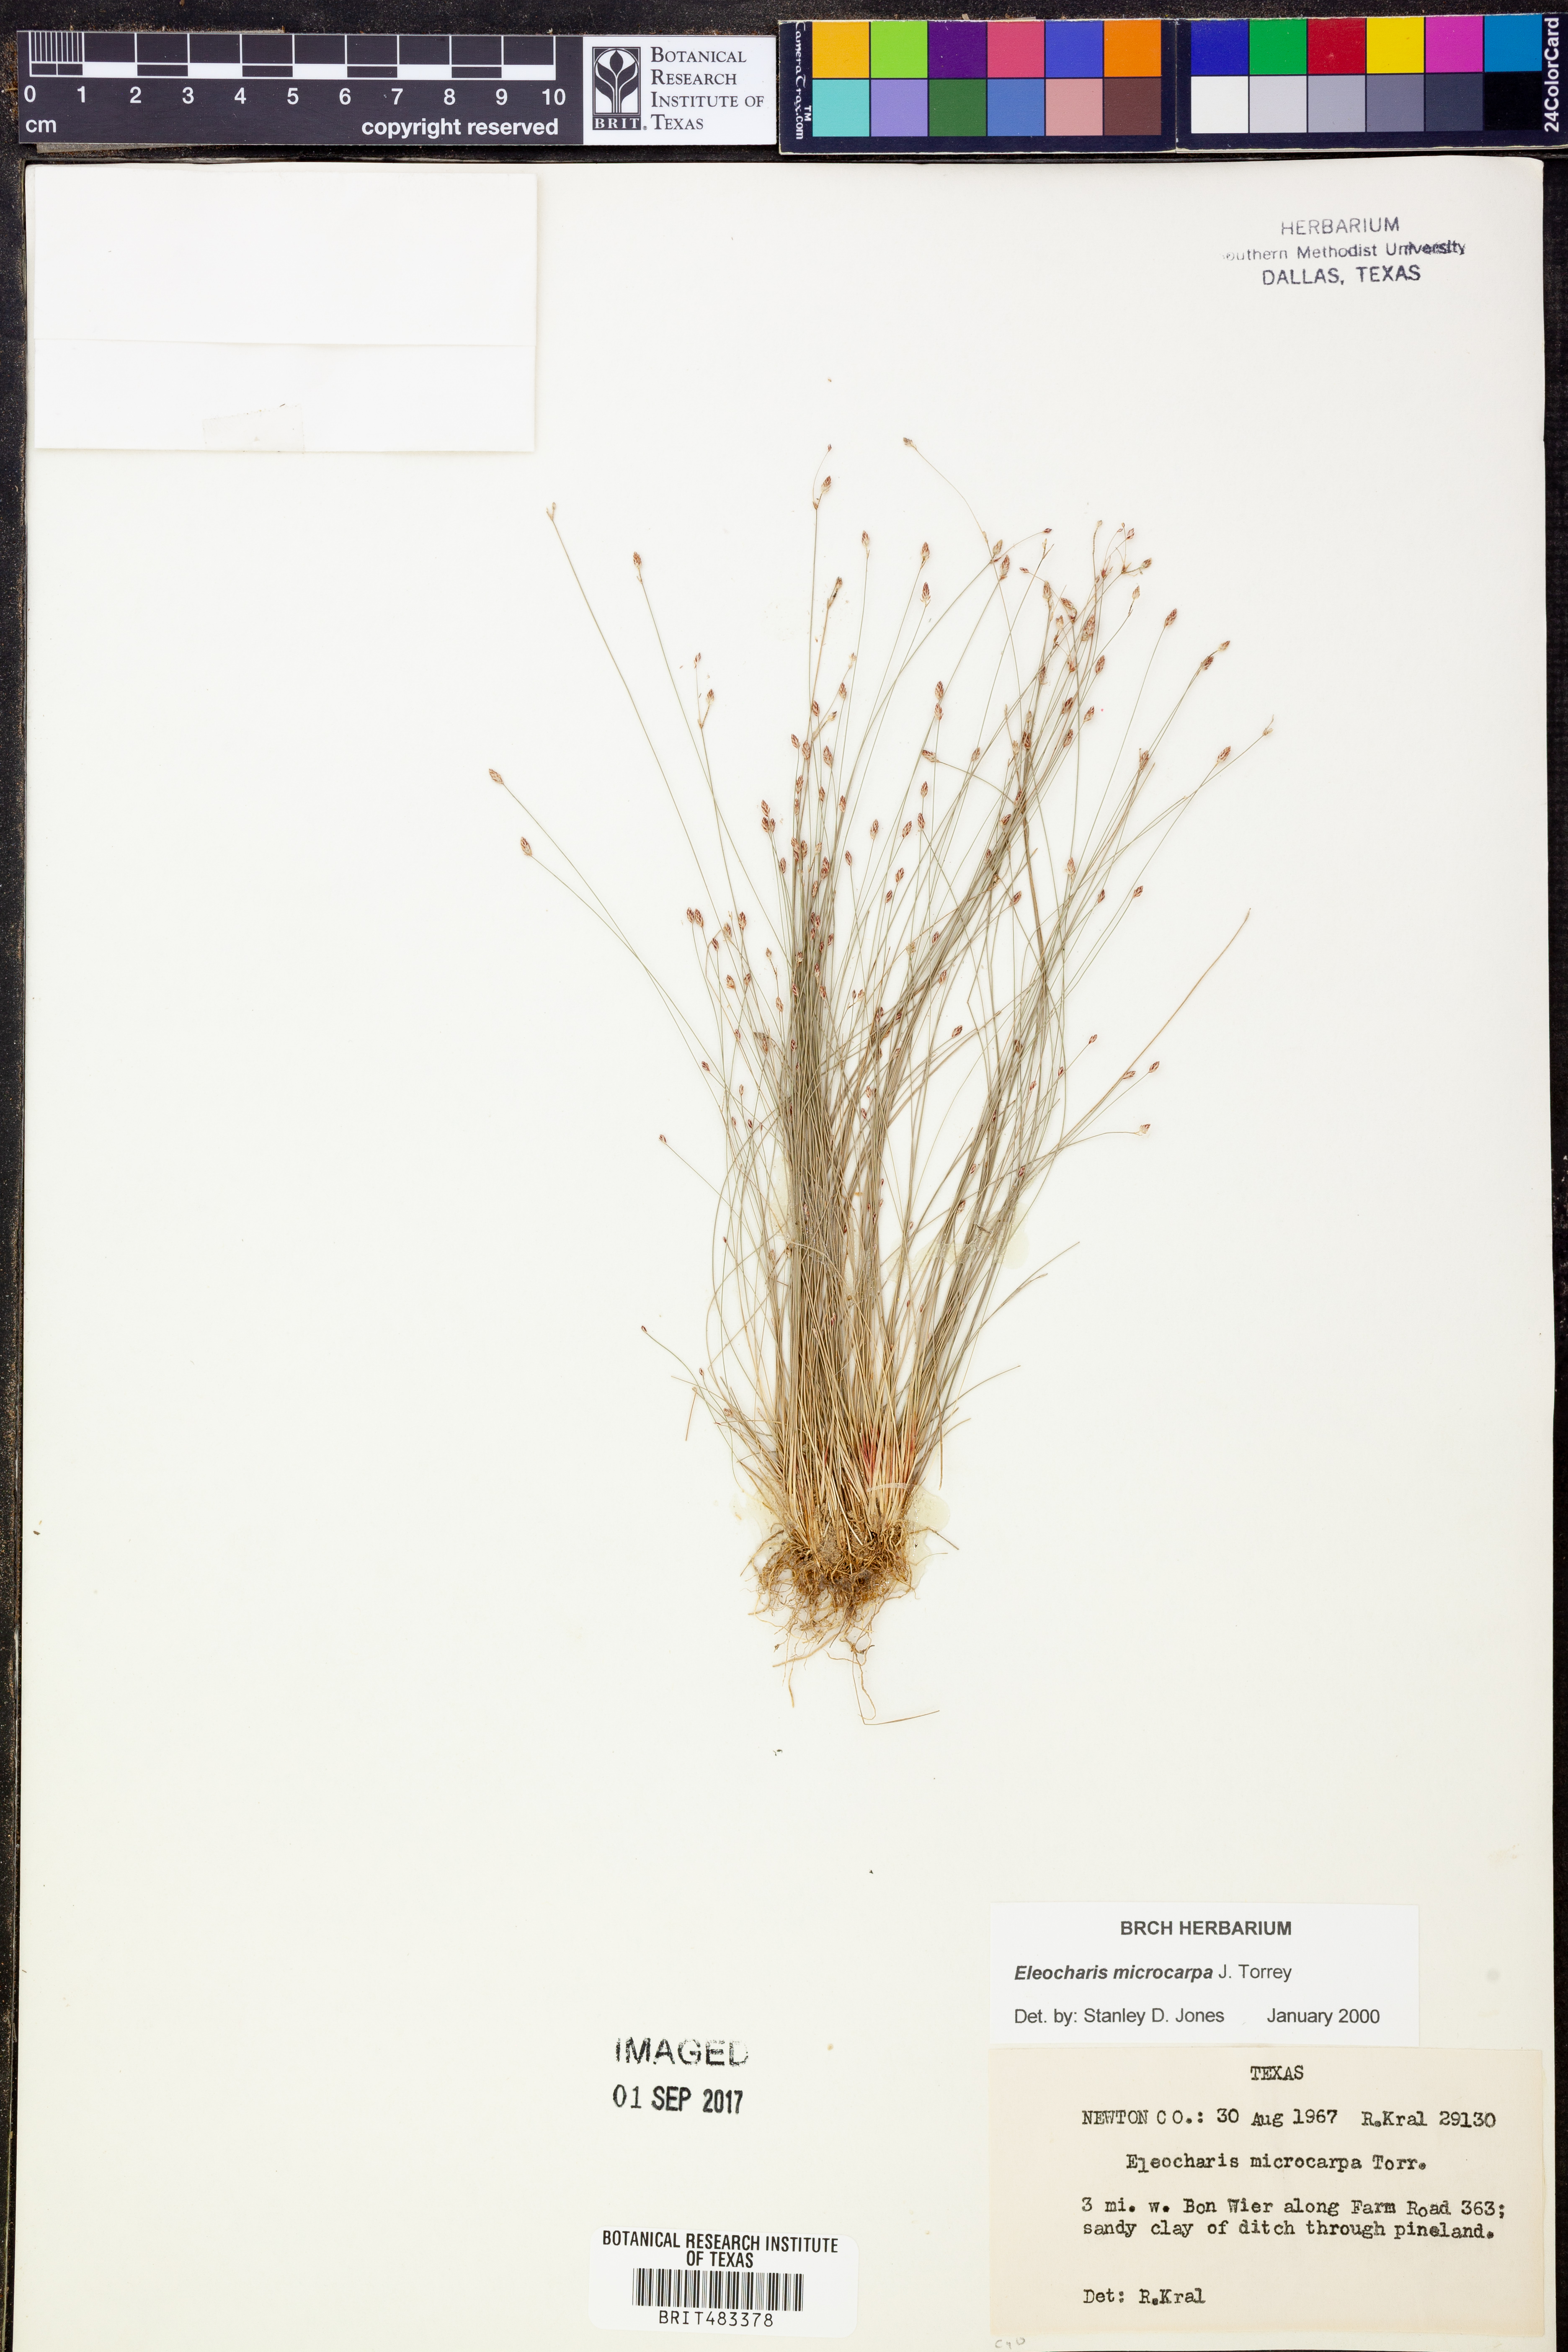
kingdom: Plantae
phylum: Tracheophyta
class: Liliopsida
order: Poales
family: Cyperaceae
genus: Eleocharis
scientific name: Eleocharis microcarpa
